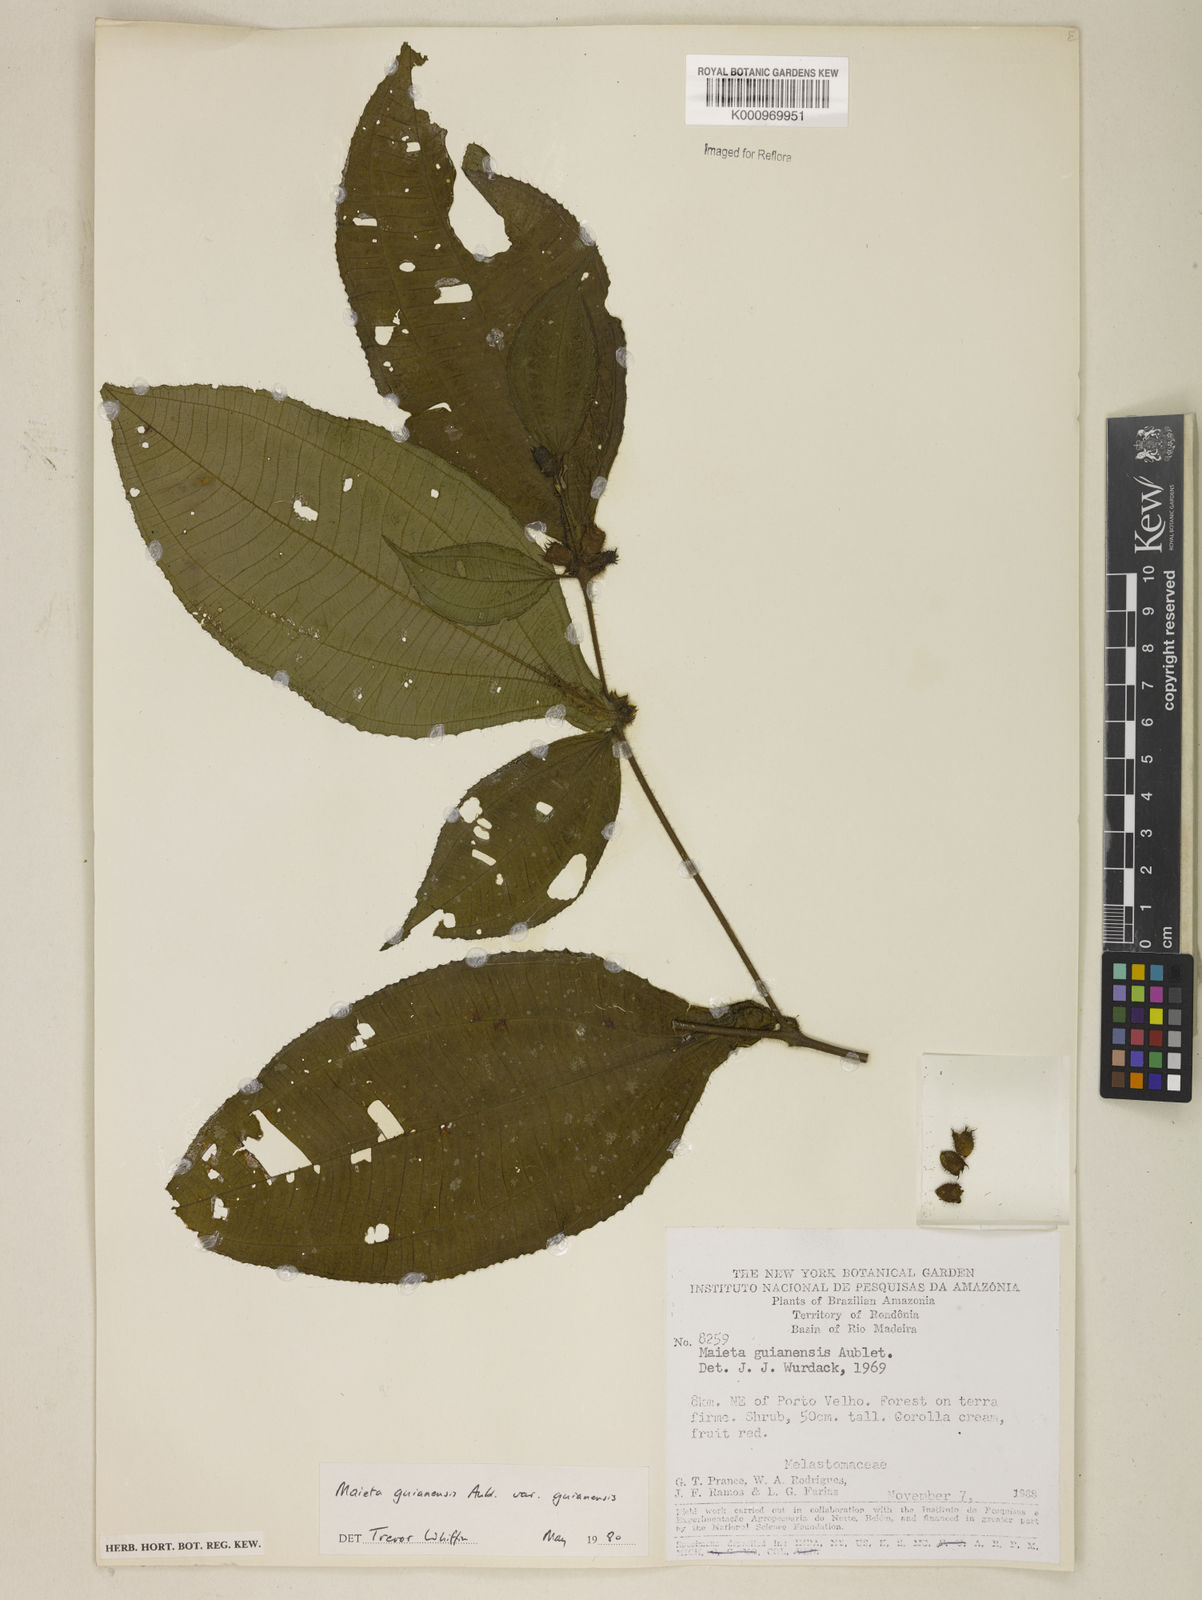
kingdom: Plantae
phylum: Tracheophyta
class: Magnoliopsida
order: Myrtales
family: Melastomataceae
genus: Miconia
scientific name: Miconia mayeta
